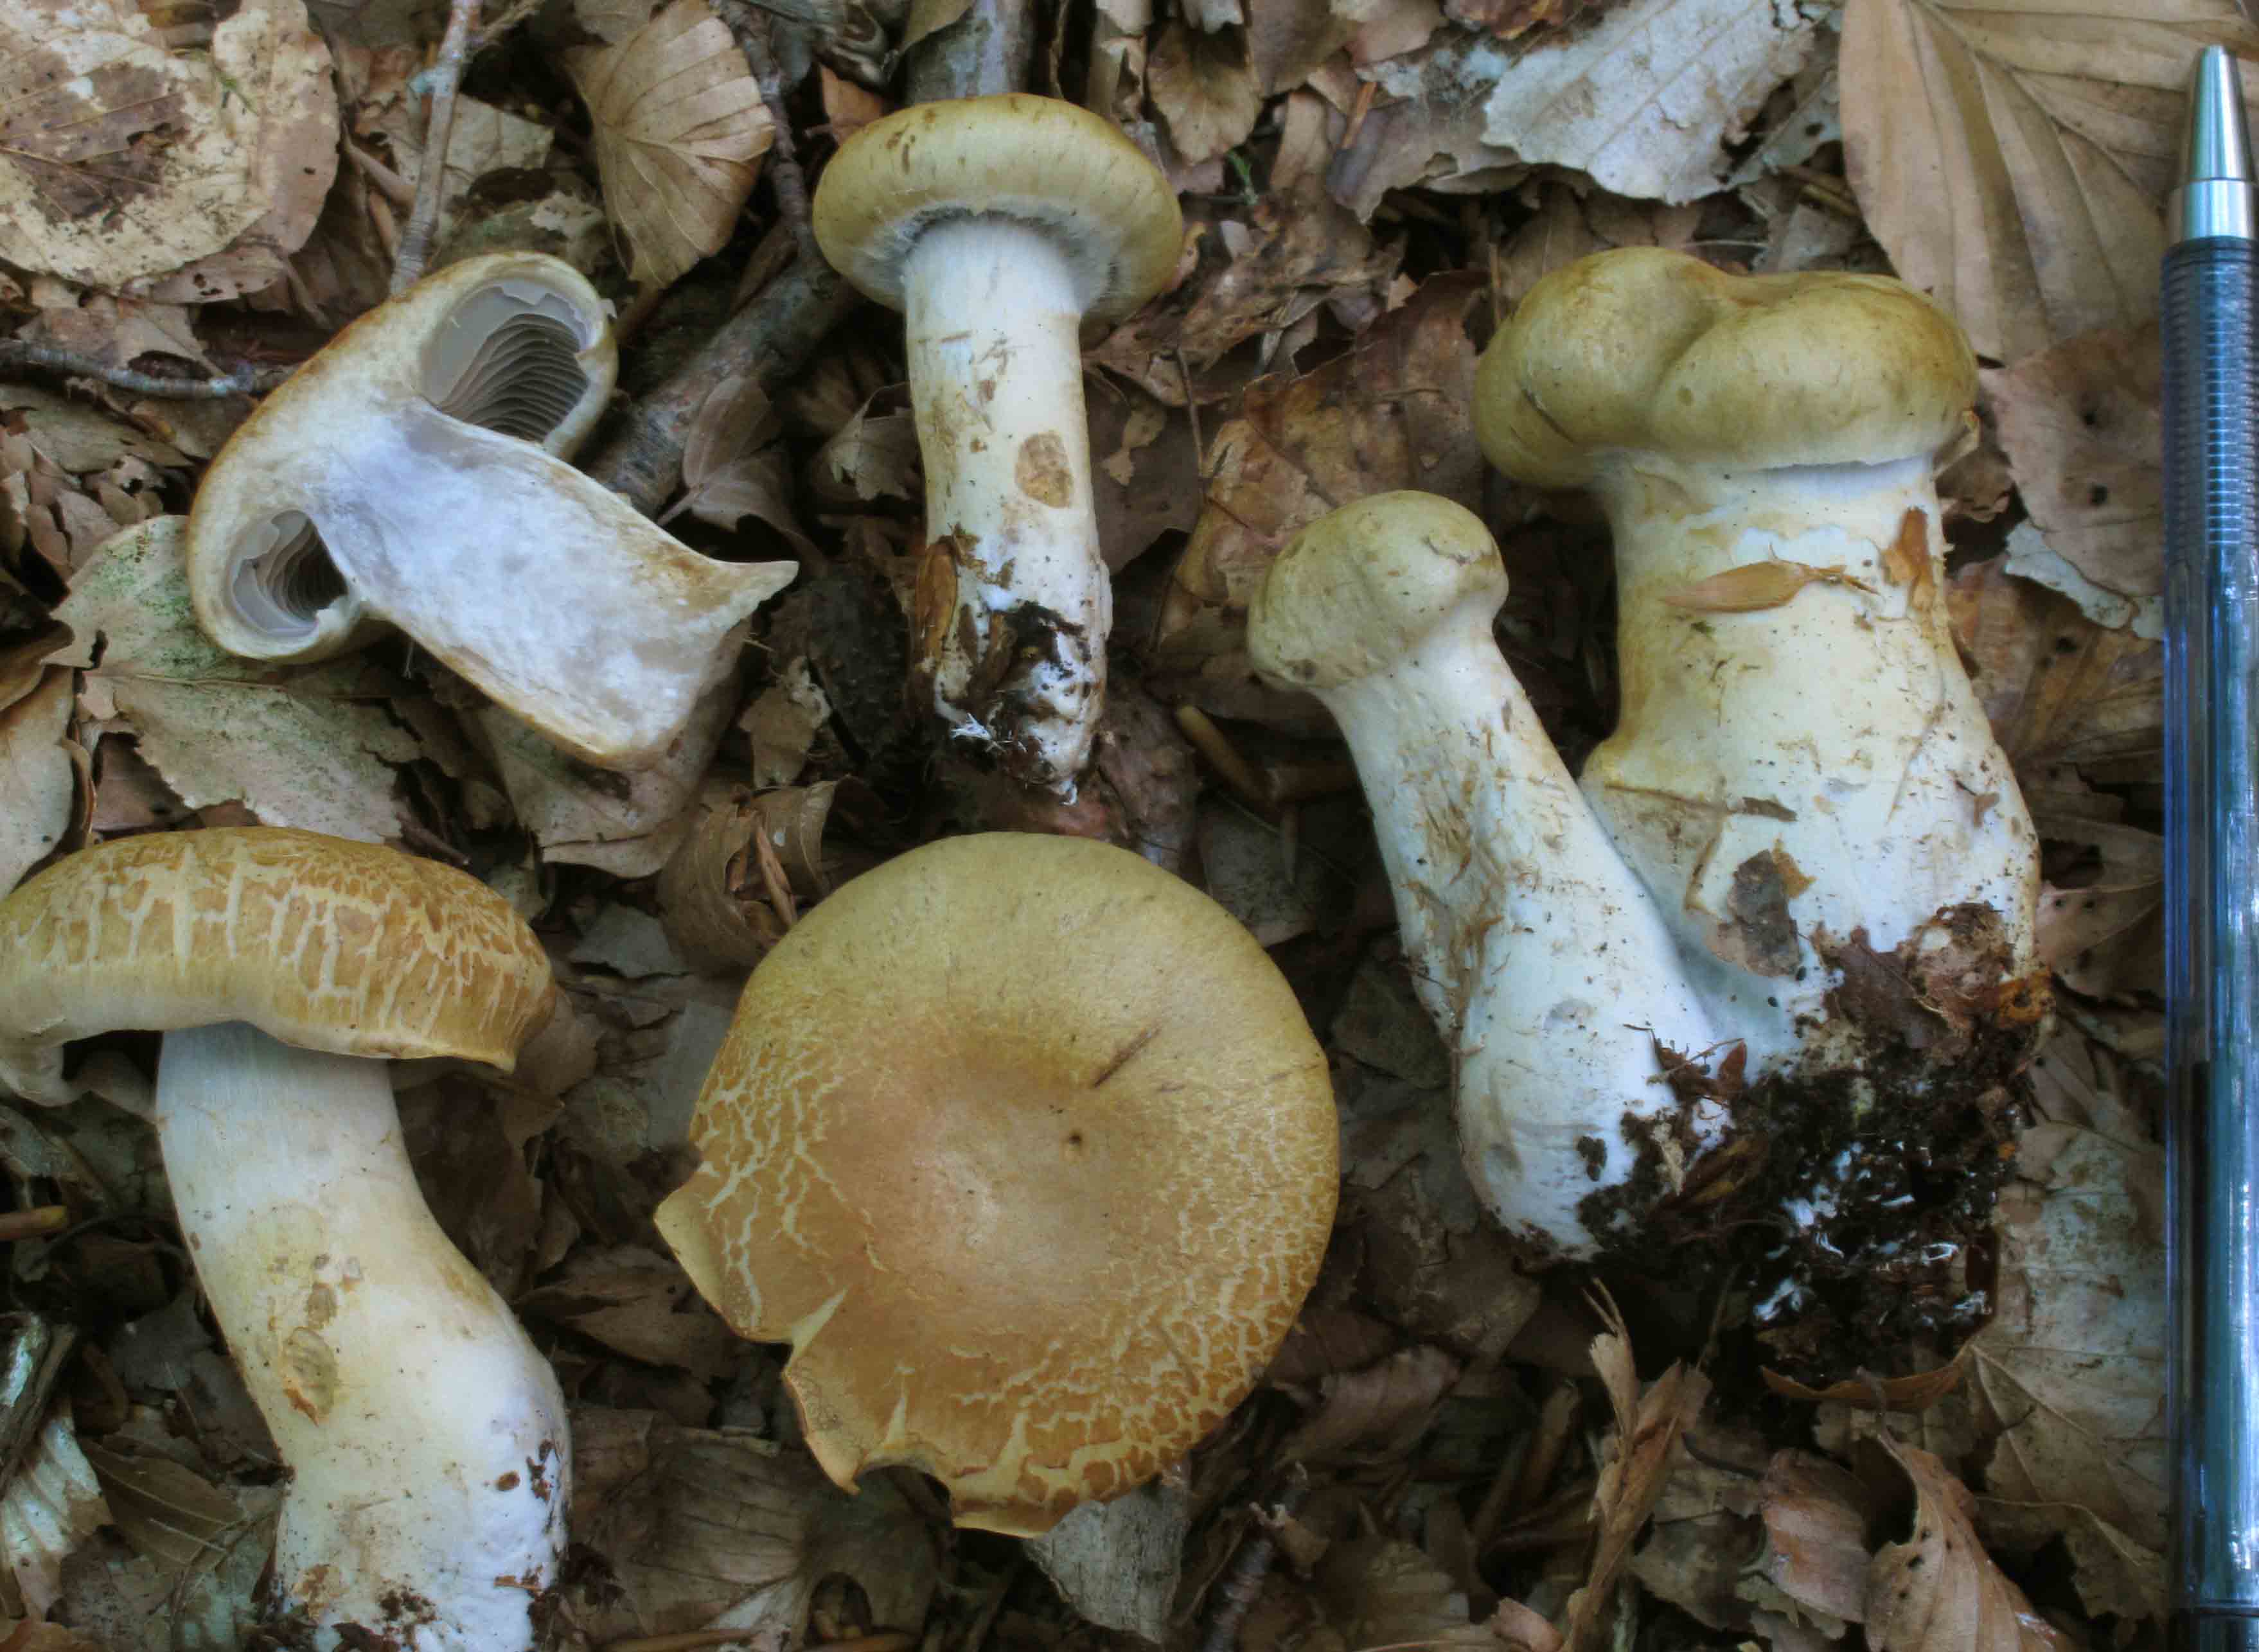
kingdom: Fungi
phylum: Basidiomycota
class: Agaricomycetes
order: Agaricales
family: Cortinariaceae
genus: Cortinarius
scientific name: Cortinarius subtortus
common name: olivengul slørhat
